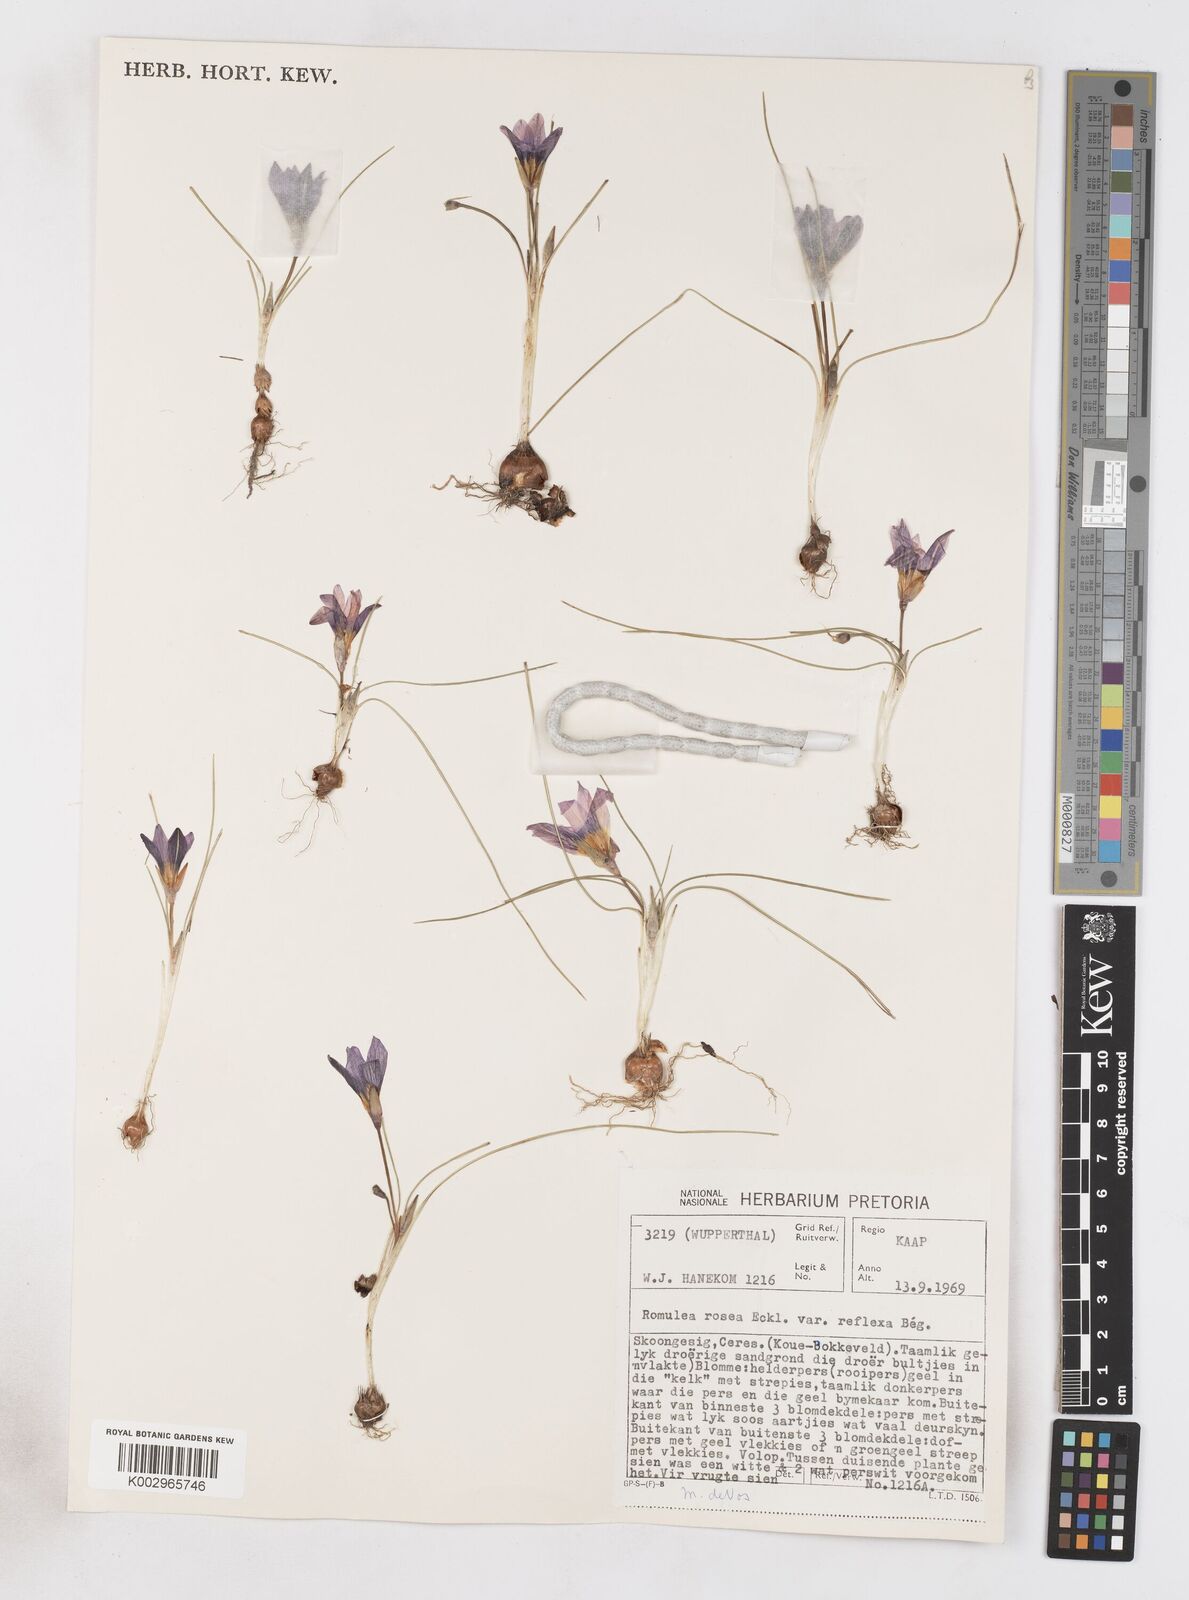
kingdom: Plantae
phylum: Tracheophyta
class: Liliopsida
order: Asparagales
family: Iridaceae
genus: Romulea
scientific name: Romulea rosea
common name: Oniongrass
